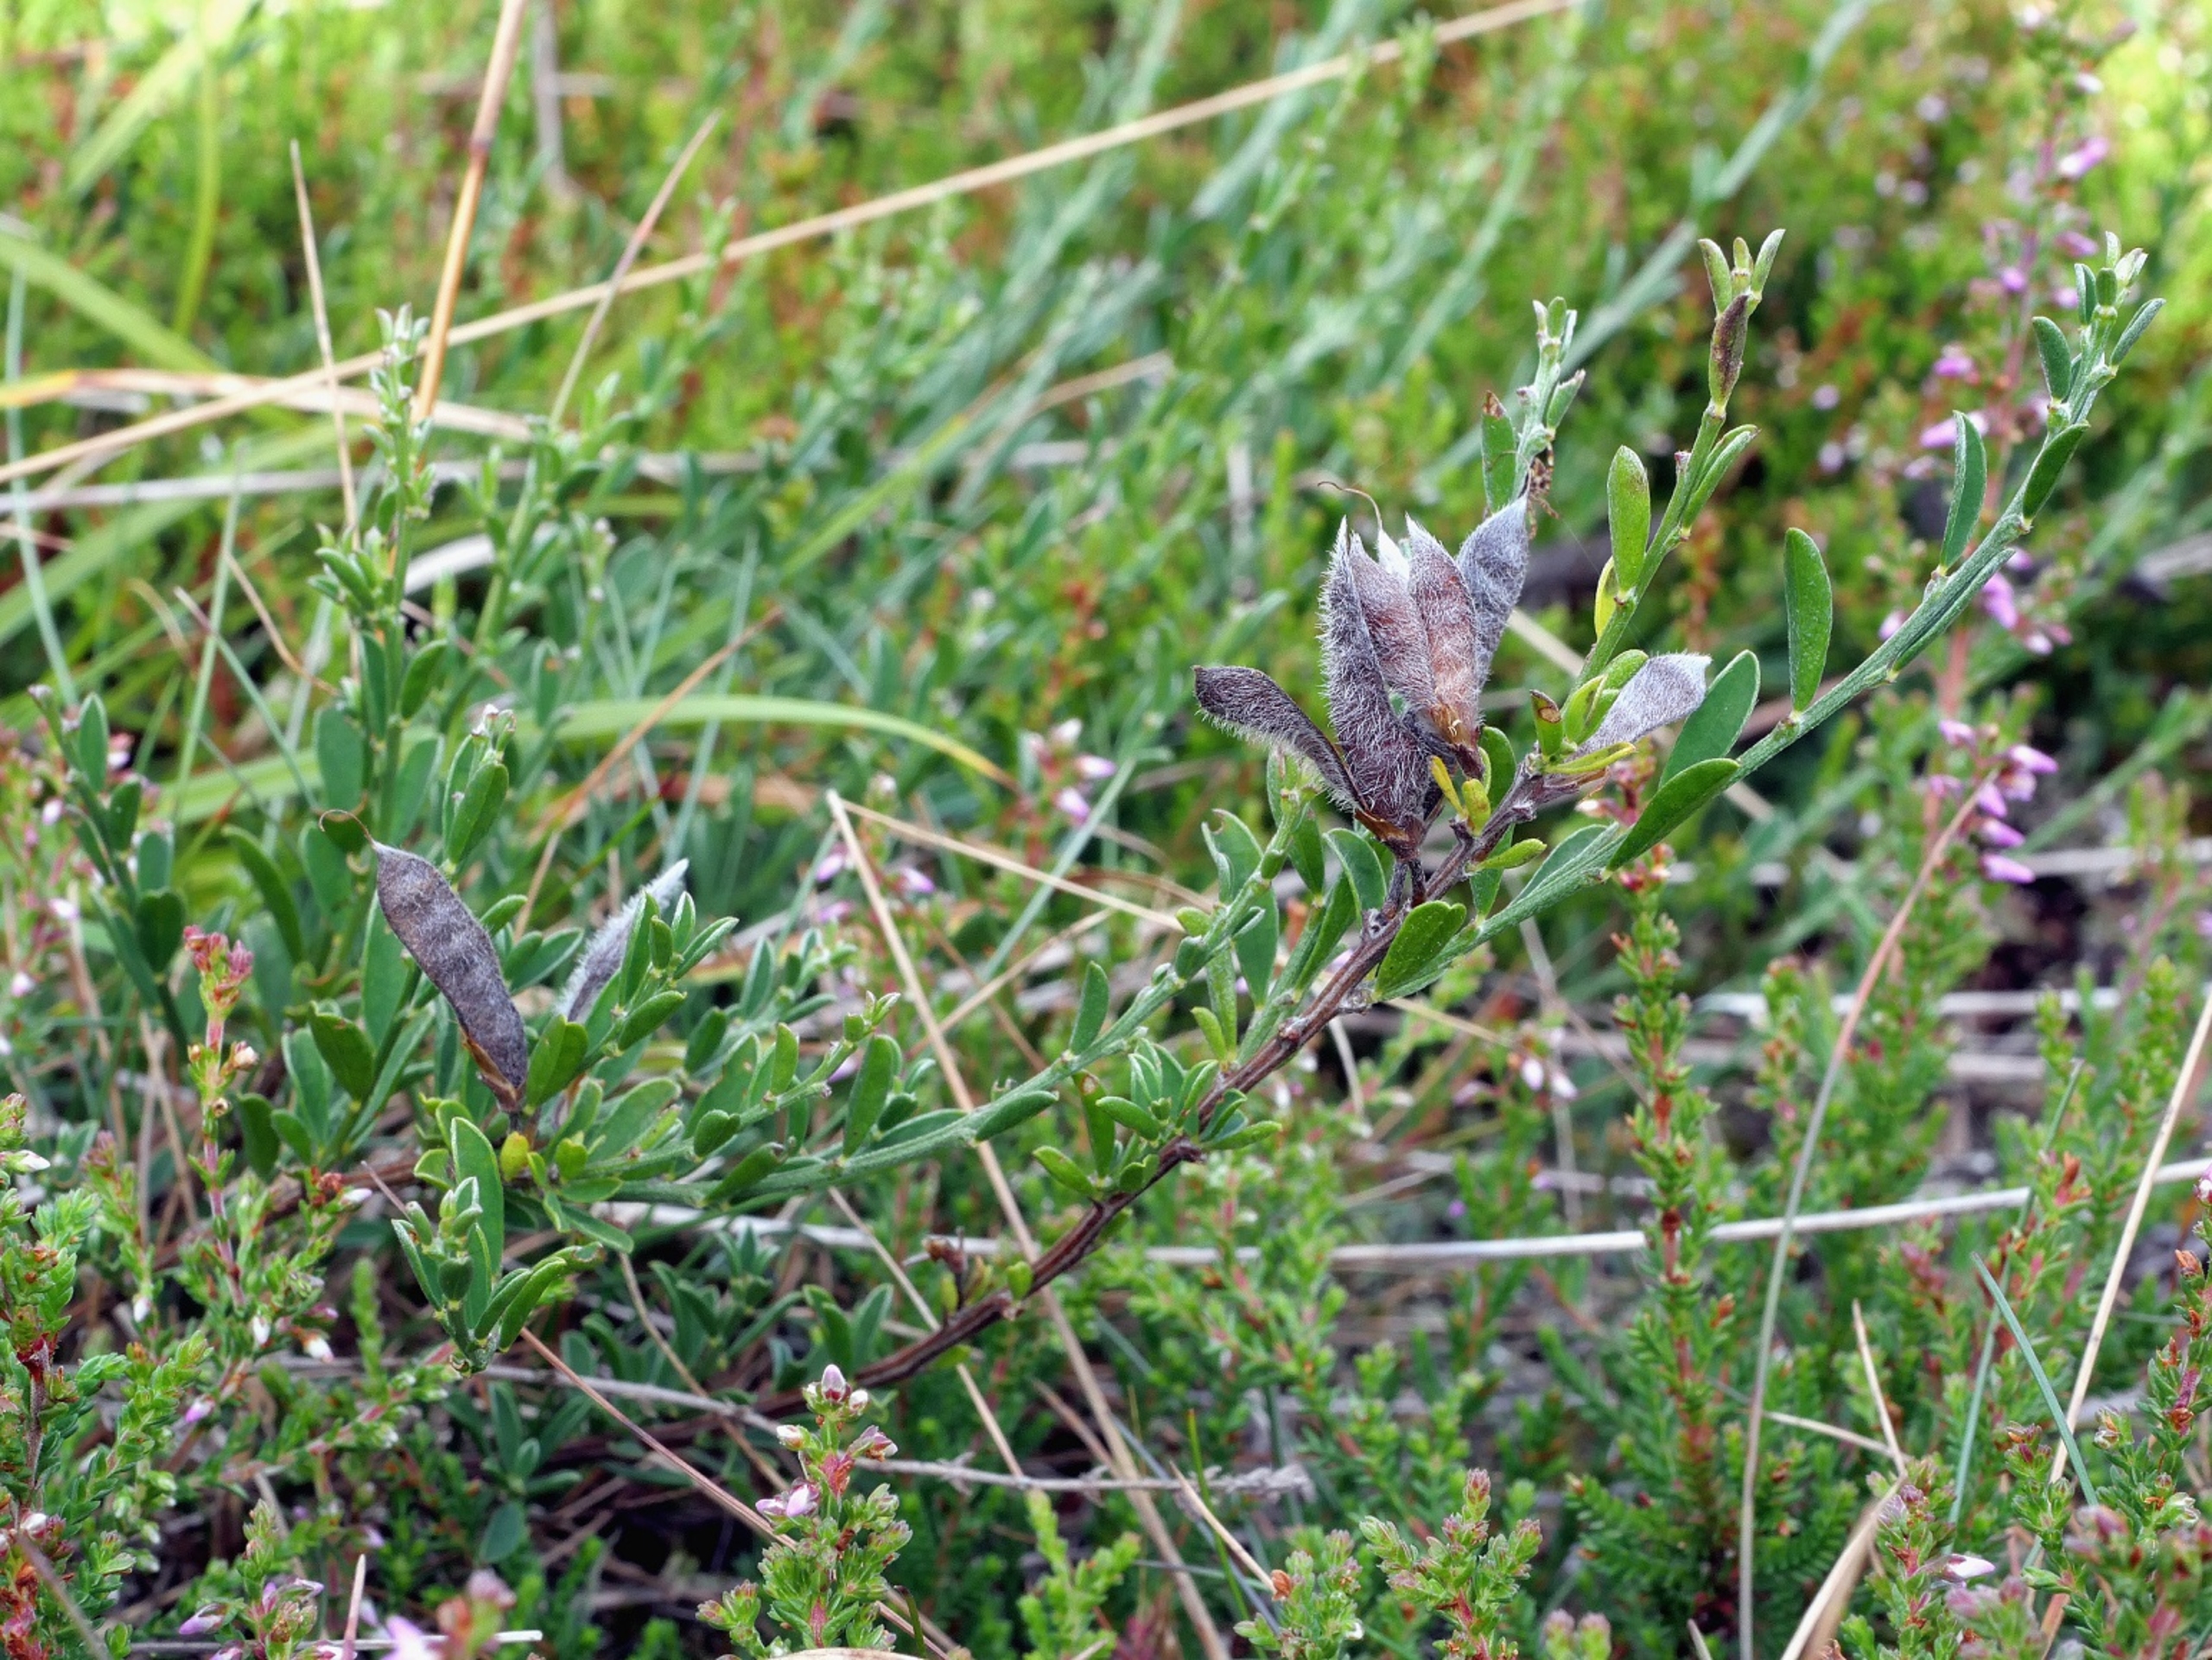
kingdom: Plantae
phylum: Tracheophyta
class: Magnoliopsida
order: Fabales
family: Fabaceae
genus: Genista
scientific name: Genista pilosa
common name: Håret visse
